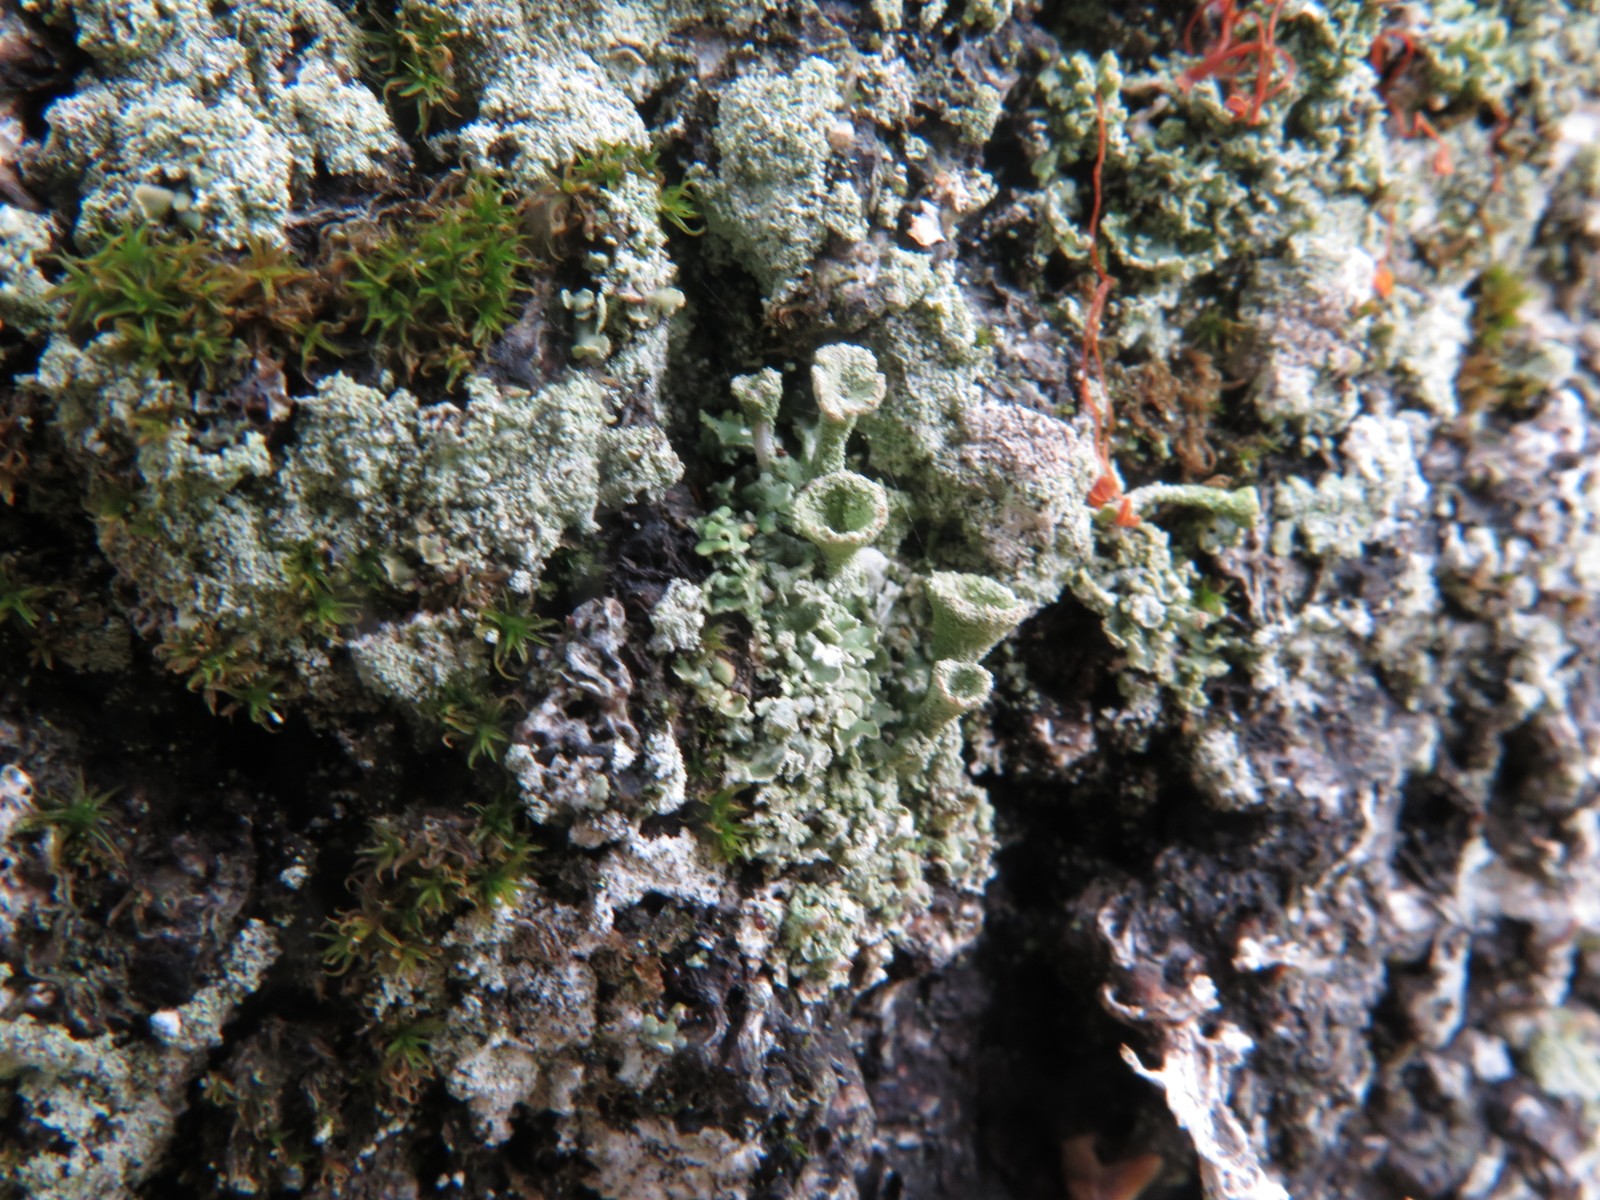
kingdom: Fungi
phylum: Ascomycota
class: Lecanoromycetes
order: Lecanorales
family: Cladoniaceae
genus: Cladonia
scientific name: Cladonia
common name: brungrøn bægerlav
